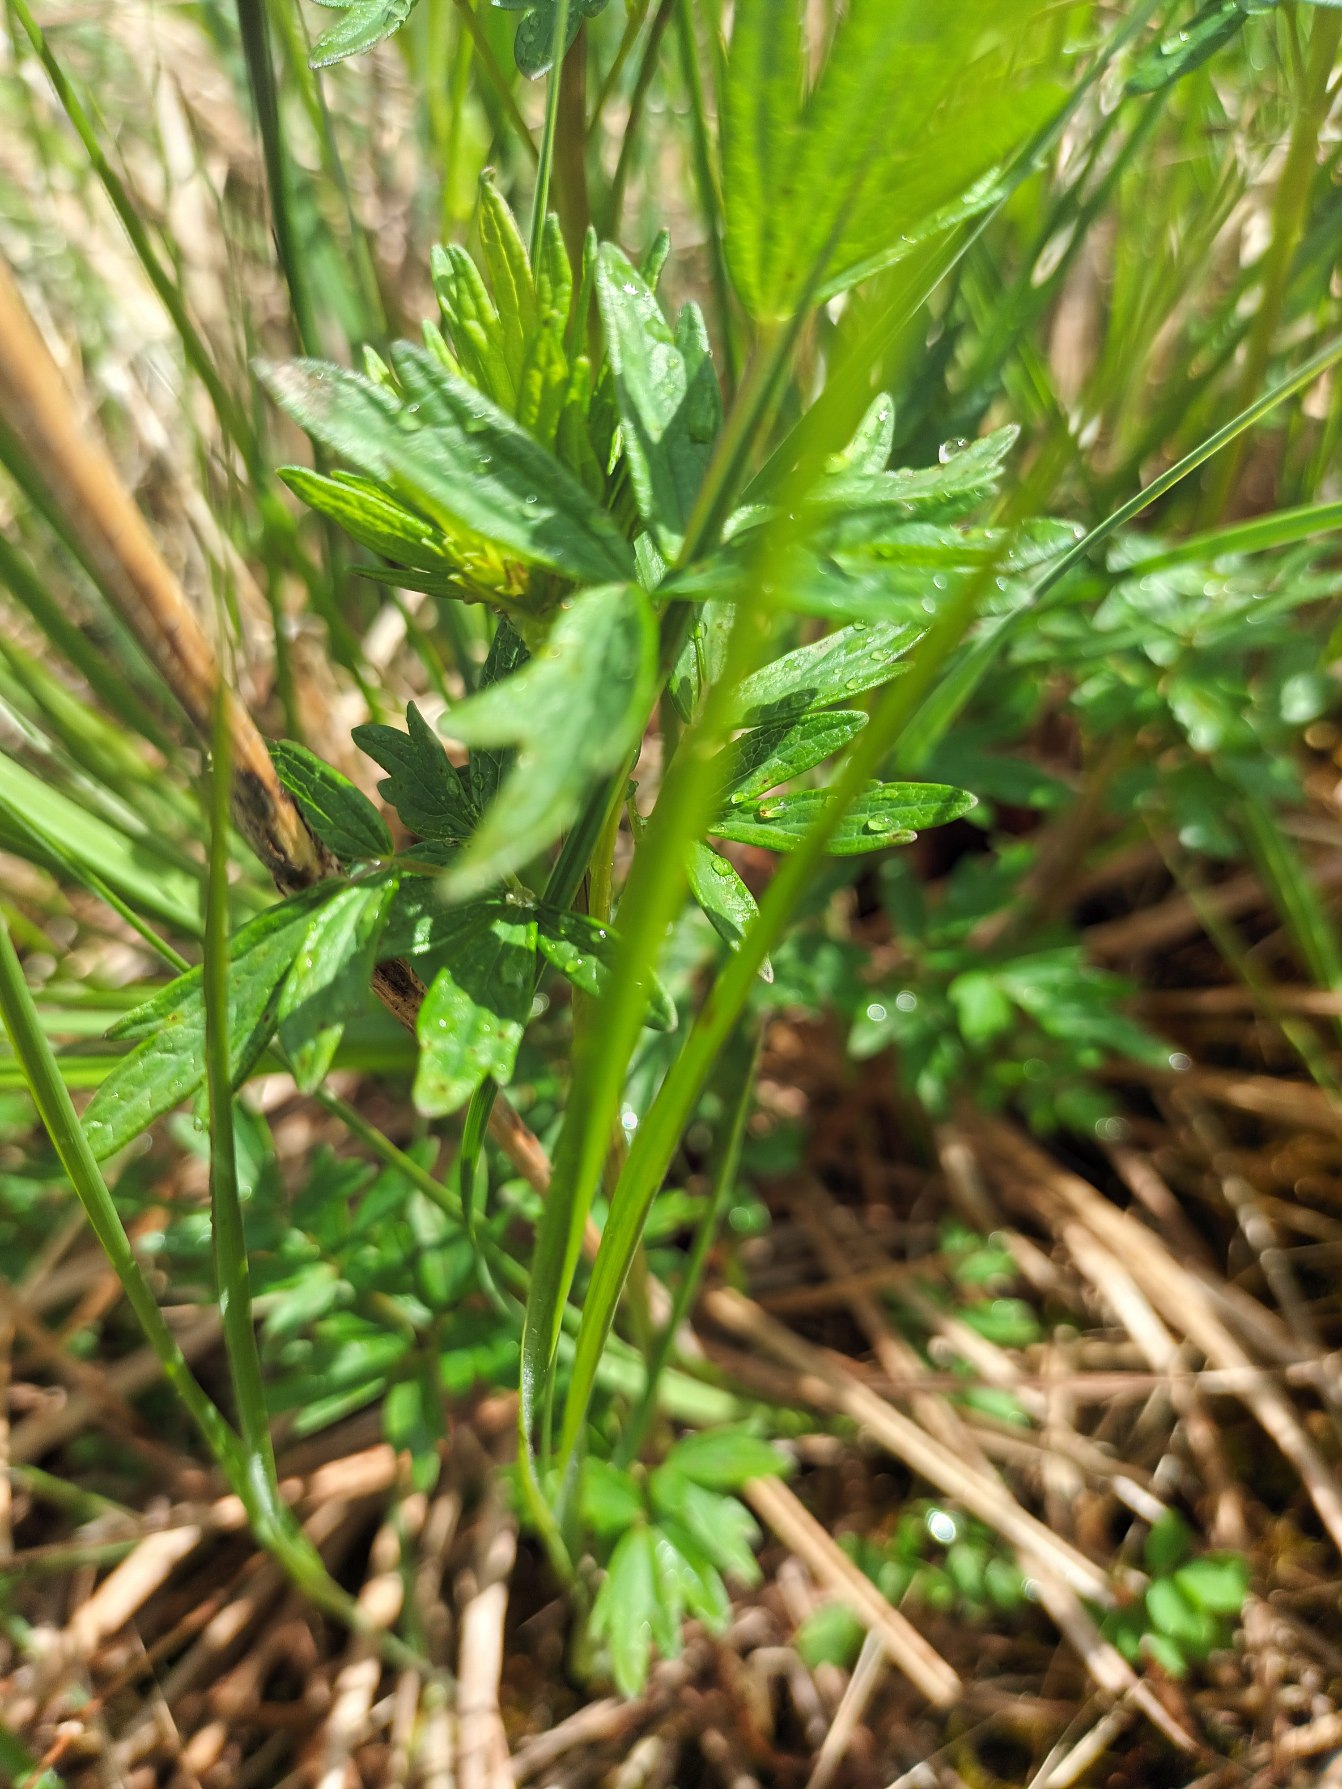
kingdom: Plantae
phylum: Tracheophyta
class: Magnoliopsida
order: Ranunculales
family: Ranunculaceae
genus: Thalictrum
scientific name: Thalictrum flavum
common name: Gul frøstjerne
